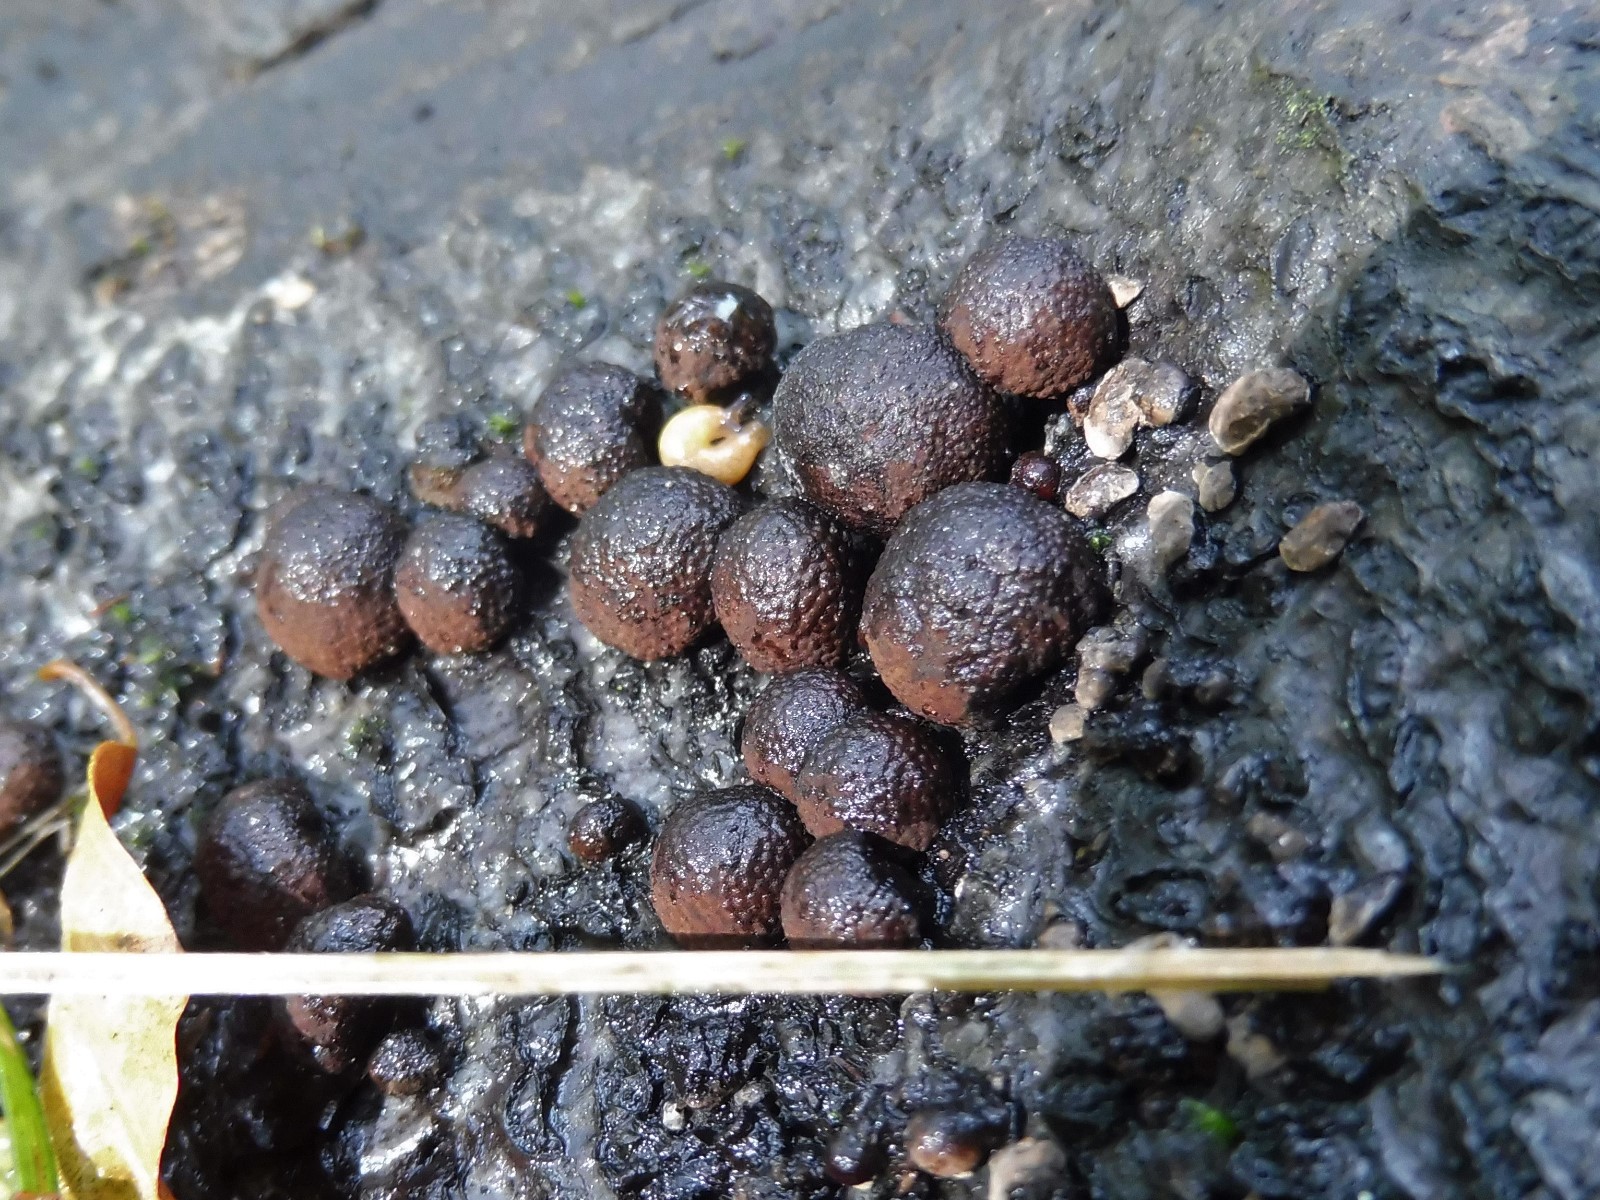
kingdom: Fungi
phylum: Ascomycota
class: Sordariomycetes
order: Xylariales
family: Hypoxylaceae
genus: Hypoxylon
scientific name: Hypoxylon fragiforme
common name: kuljordbær
